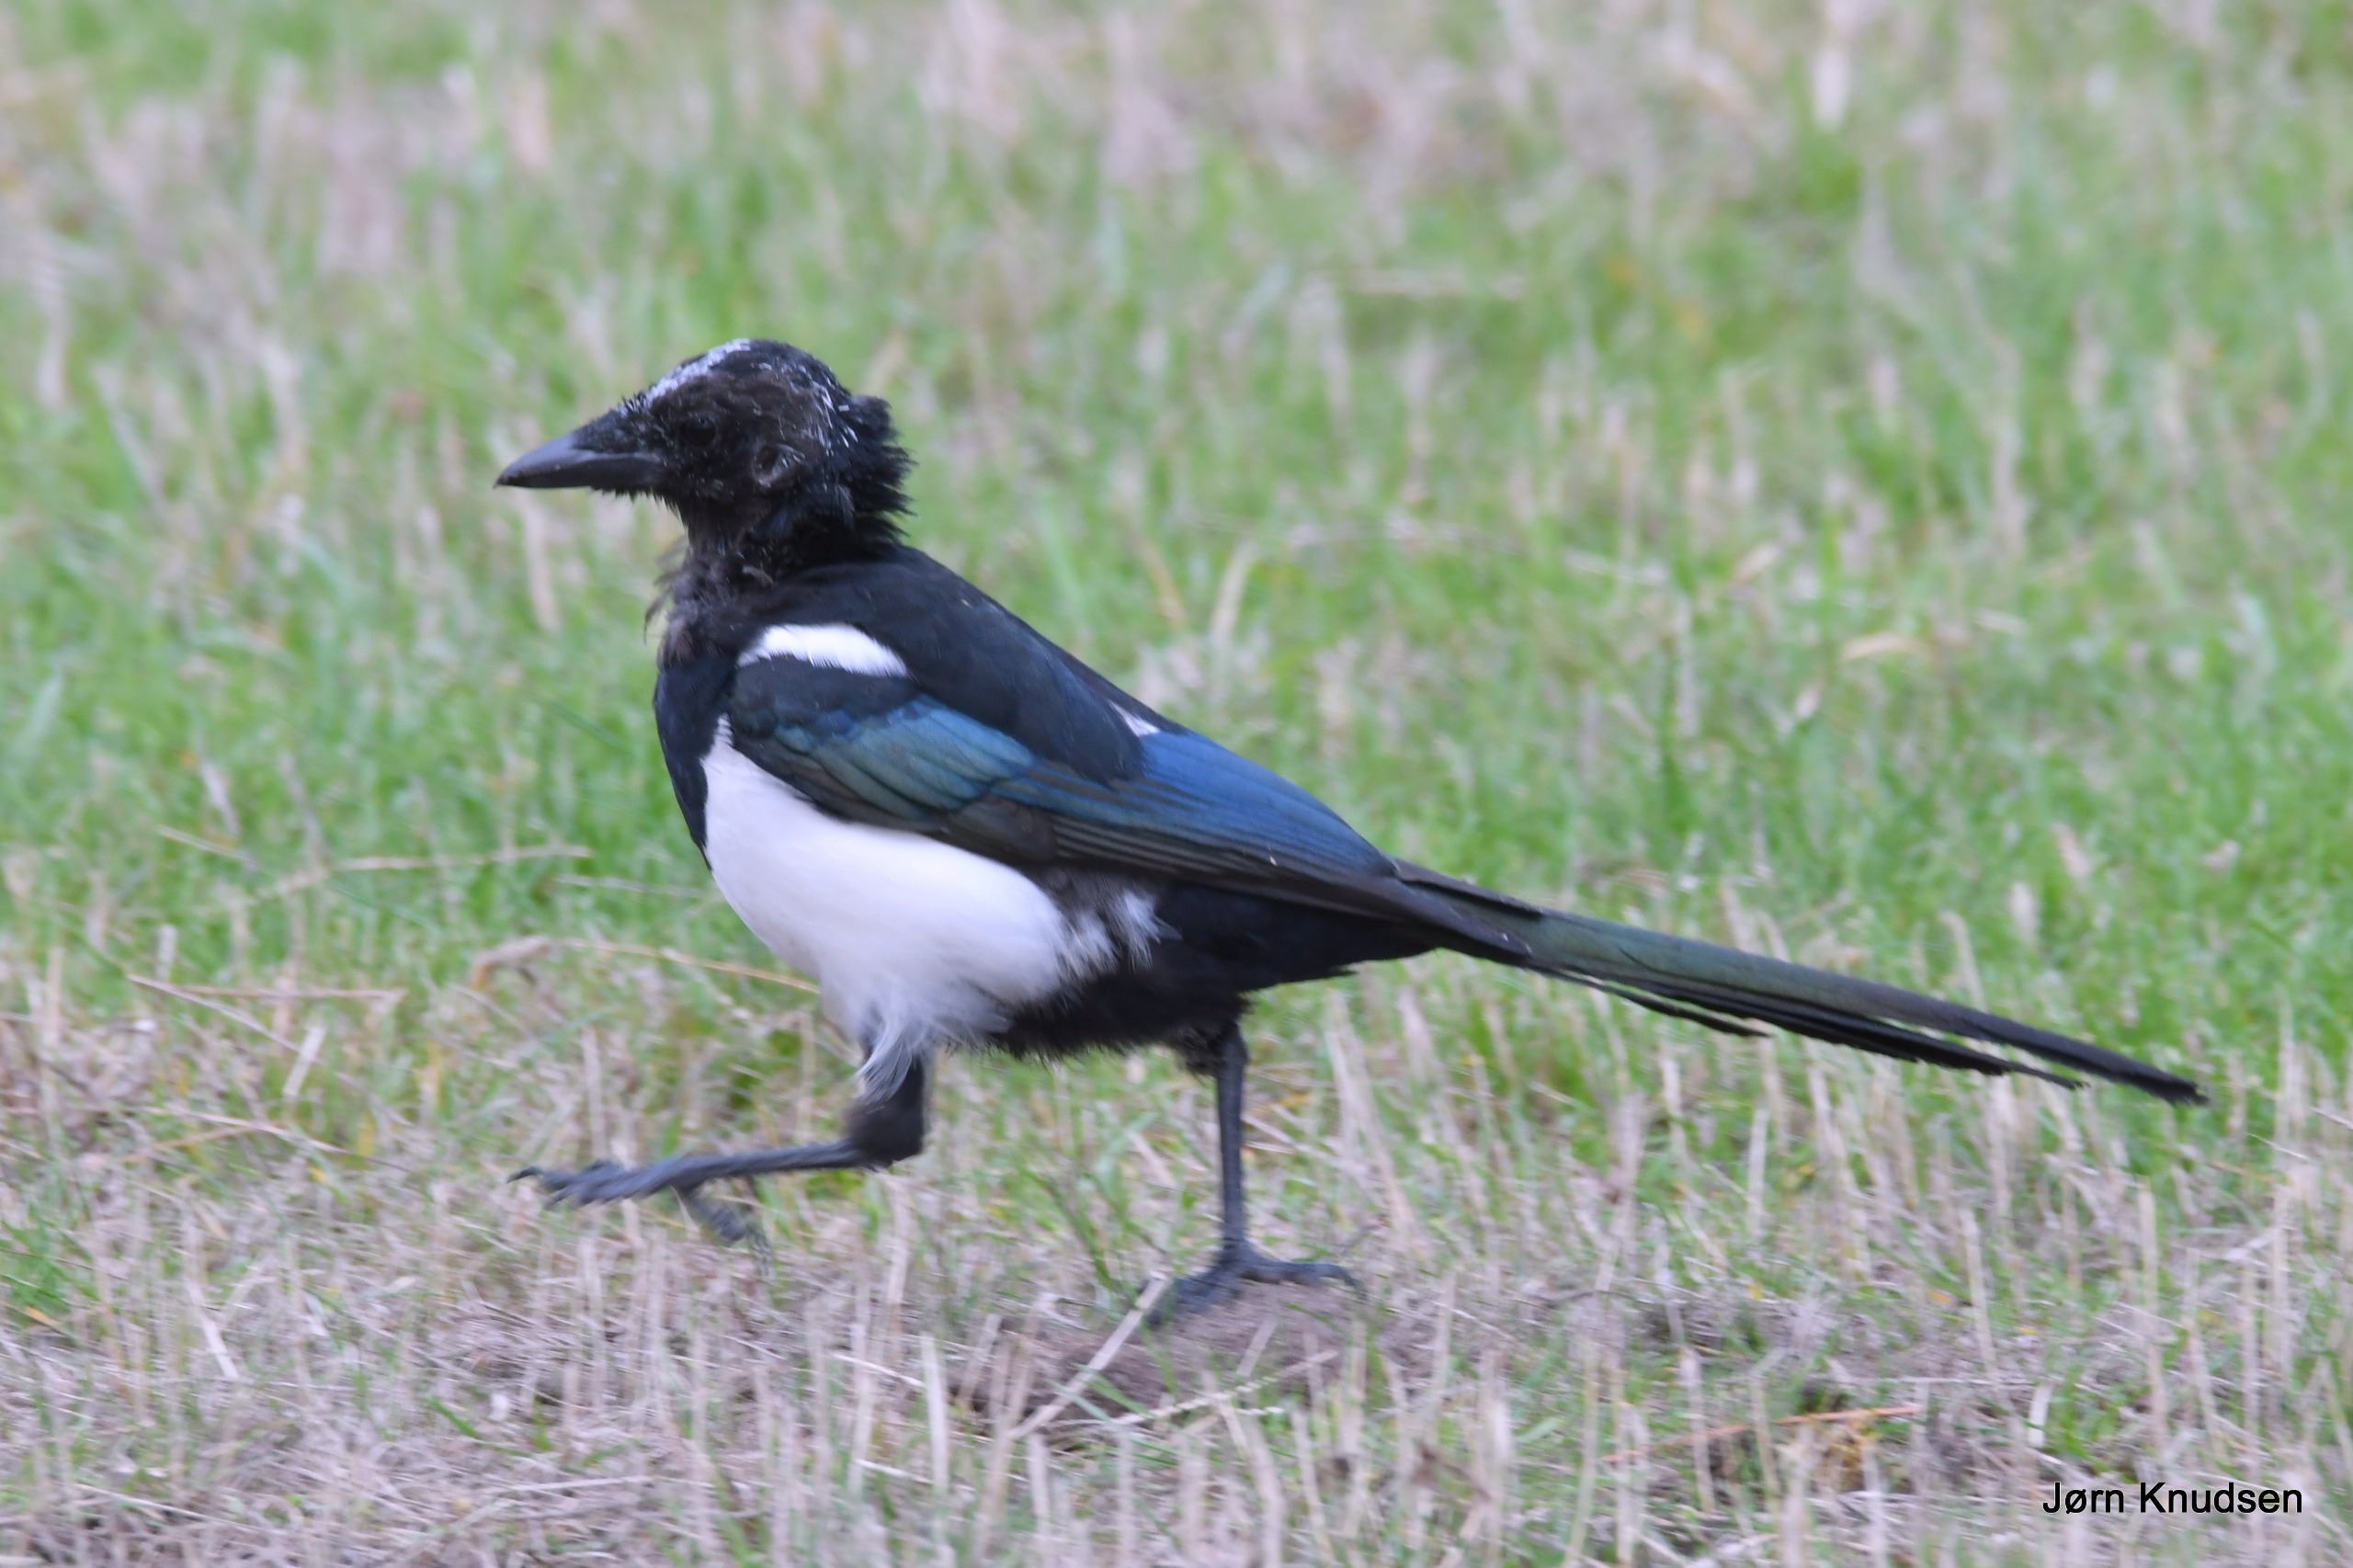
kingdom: Animalia
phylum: Chordata
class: Aves
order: Passeriformes
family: Corvidae
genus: Pica
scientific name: Pica pica
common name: Husskade
